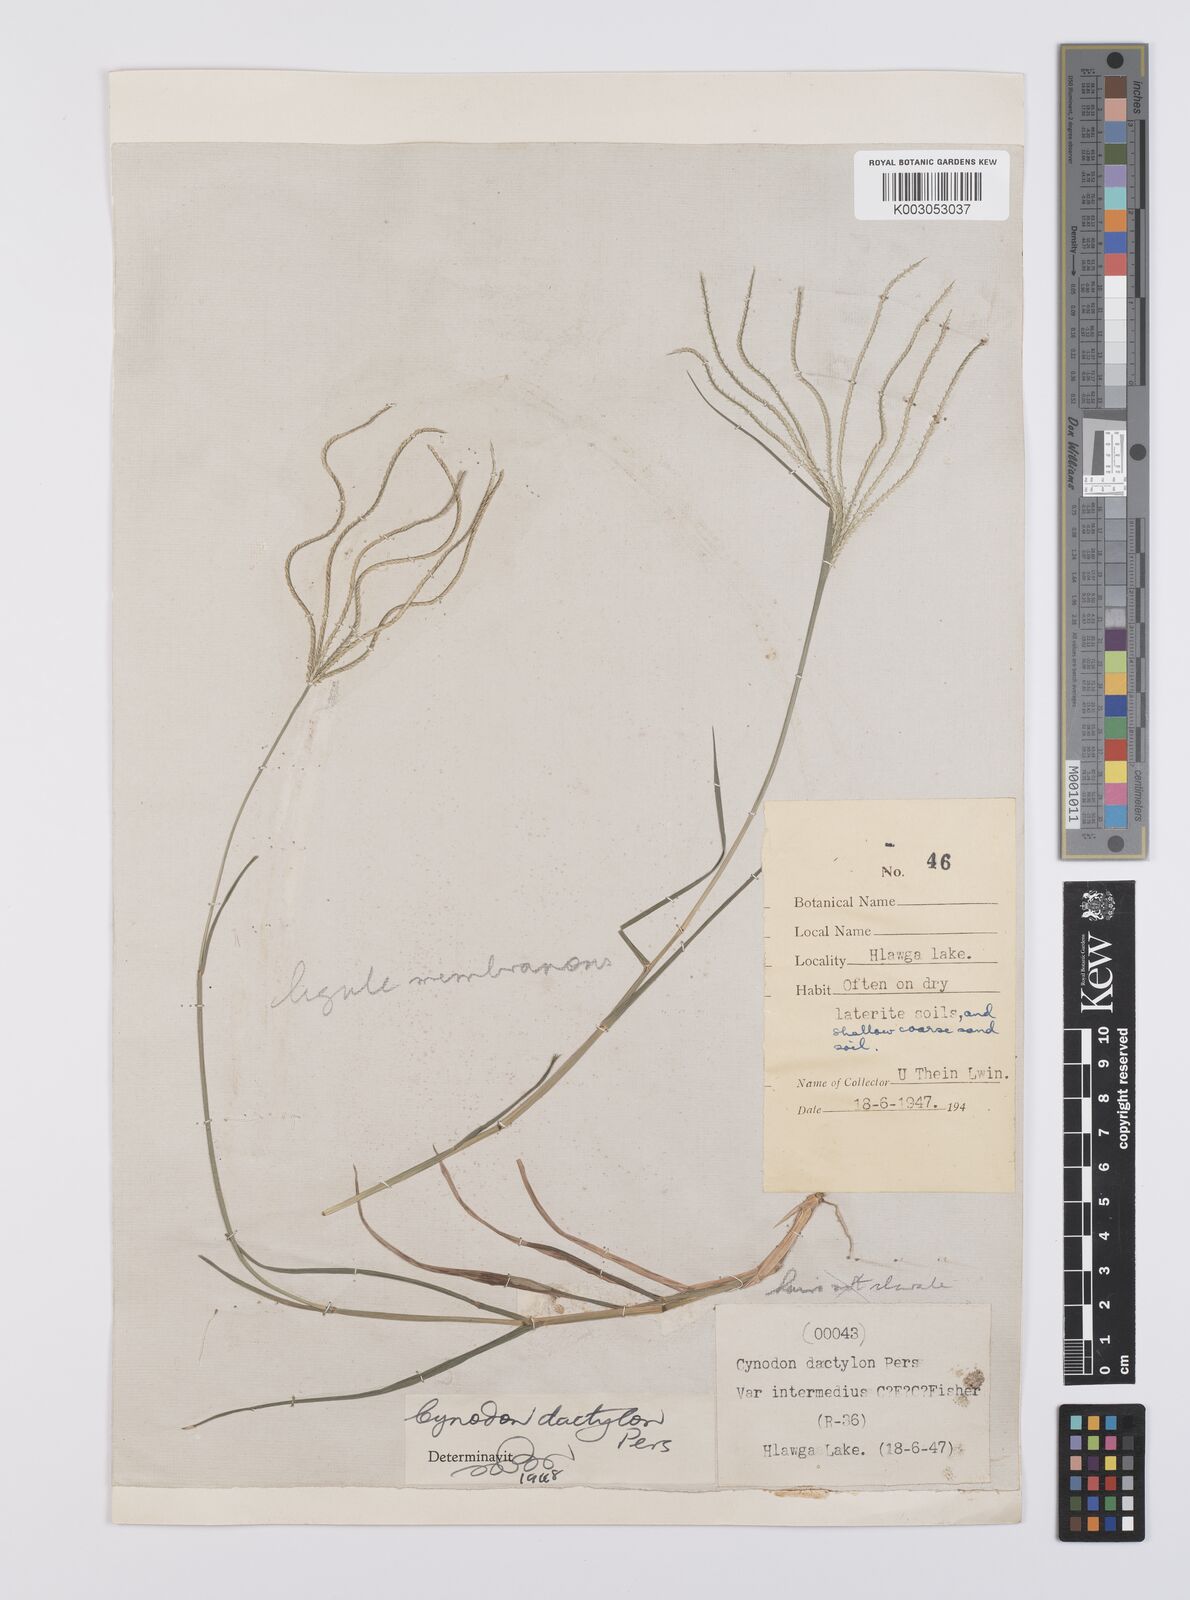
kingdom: Plantae
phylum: Tracheophyta
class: Liliopsida
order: Poales
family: Poaceae
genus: Cynodon
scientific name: Cynodon radiatus
